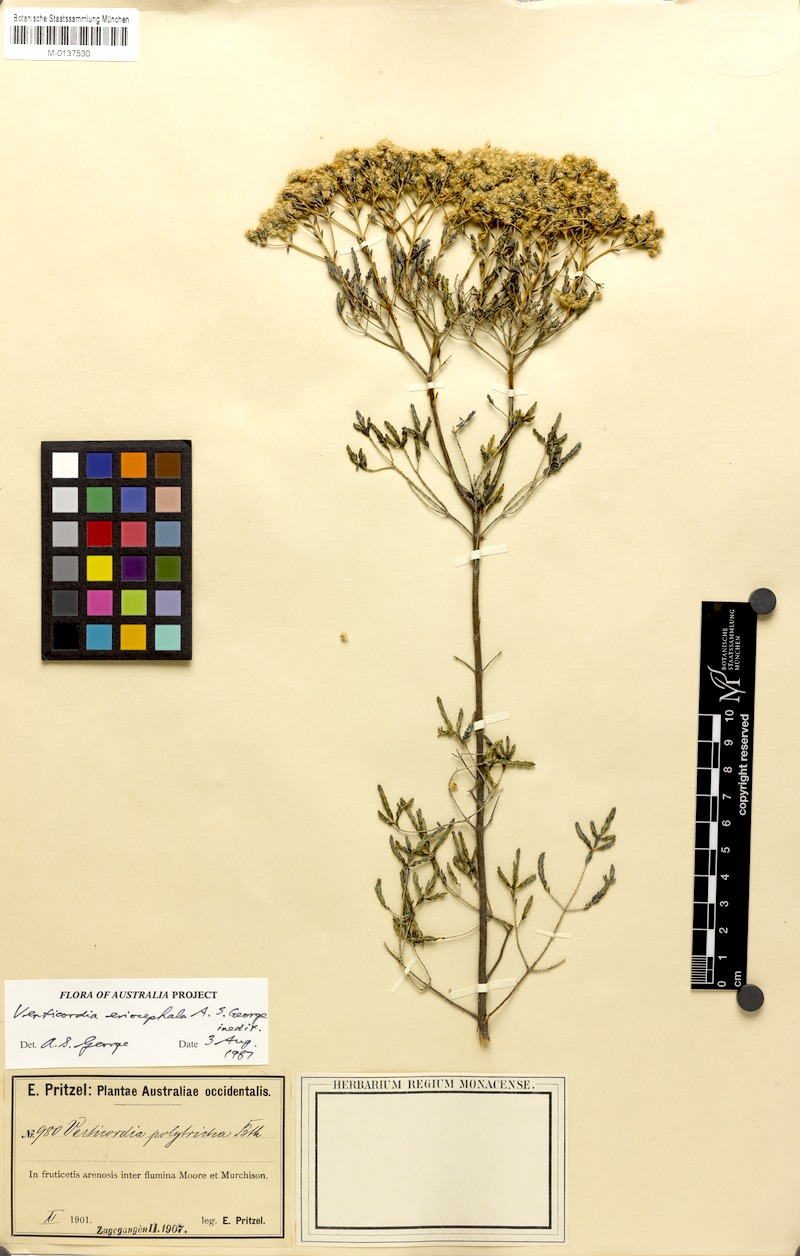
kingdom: Plantae
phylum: Tracheophyta
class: Magnoliopsida
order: Myrtales
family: Myrtaceae
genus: Verticordia
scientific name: Verticordia eriocephala
